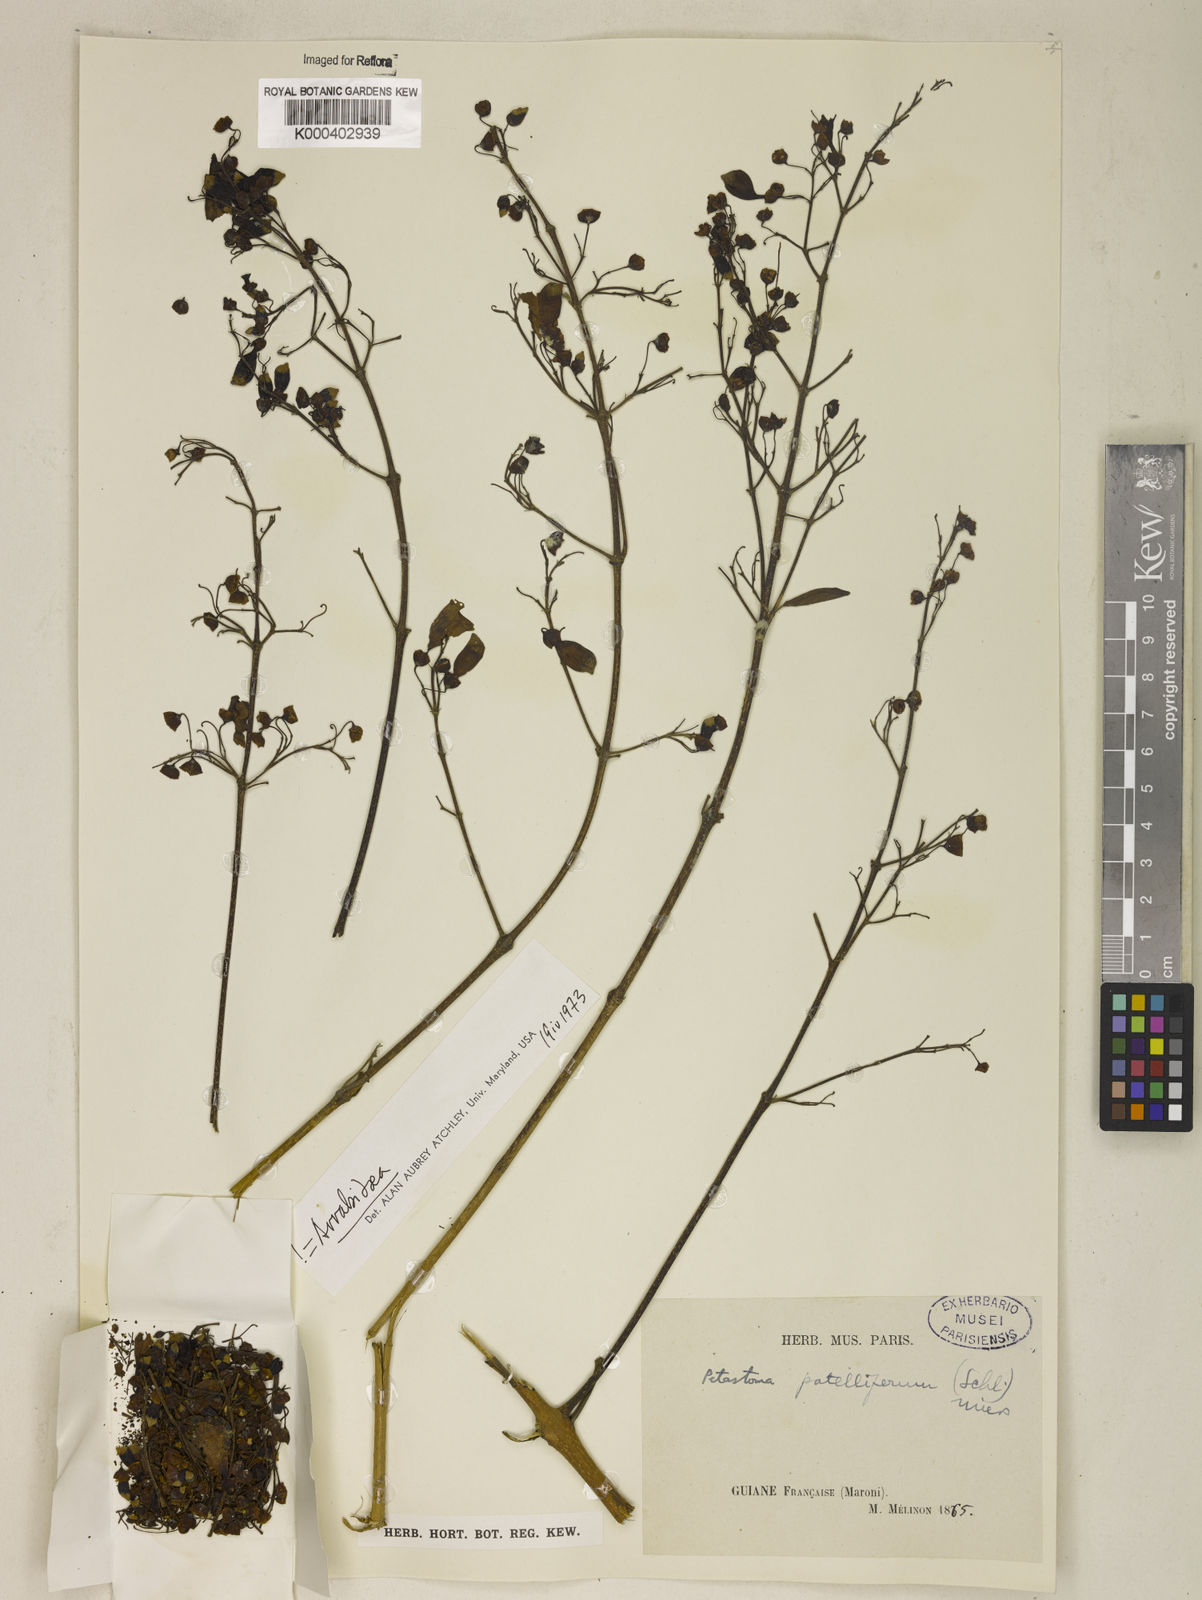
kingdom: Plantae
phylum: Tracheophyta
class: Magnoliopsida
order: Lamiales
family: Bignoniaceae
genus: Fridericia
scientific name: Fridericia patellifera
